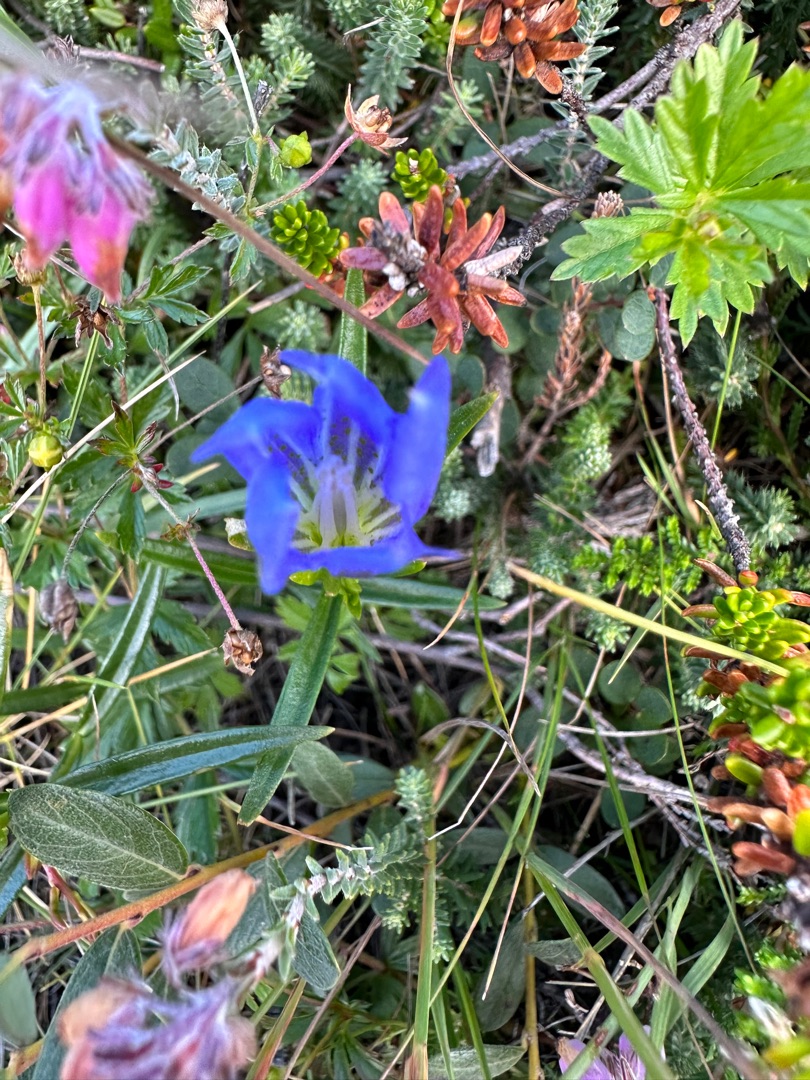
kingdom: Plantae
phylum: Tracheophyta
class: Magnoliopsida
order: Gentianales
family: Gentianaceae
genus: Gentiana
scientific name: Gentiana pneumonanthe
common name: Klokke-ensian
